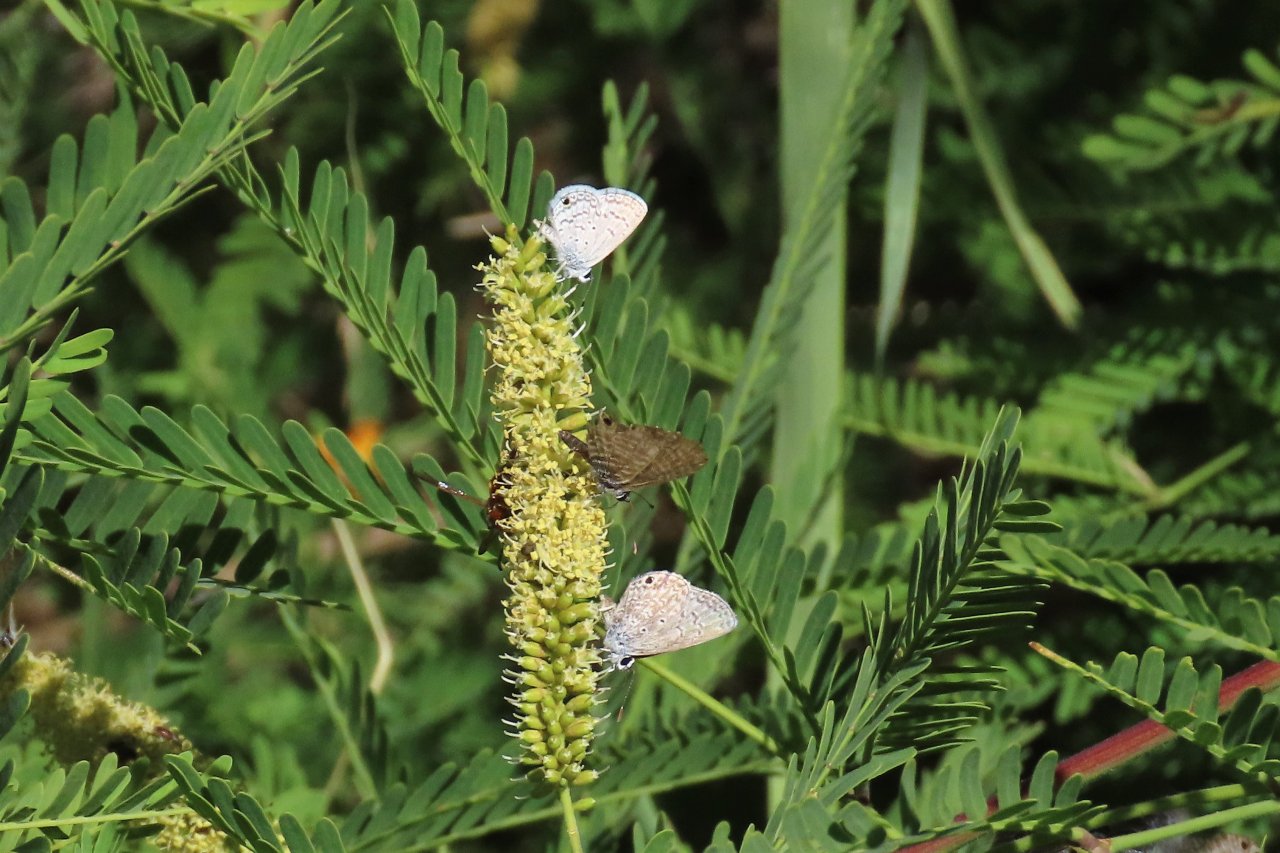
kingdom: Animalia
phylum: Arthropoda
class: Insecta
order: Lepidoptera
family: Lycaenidae
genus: Hemiargus
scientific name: Hemiargus ceraunus
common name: Ceraunus Blue
